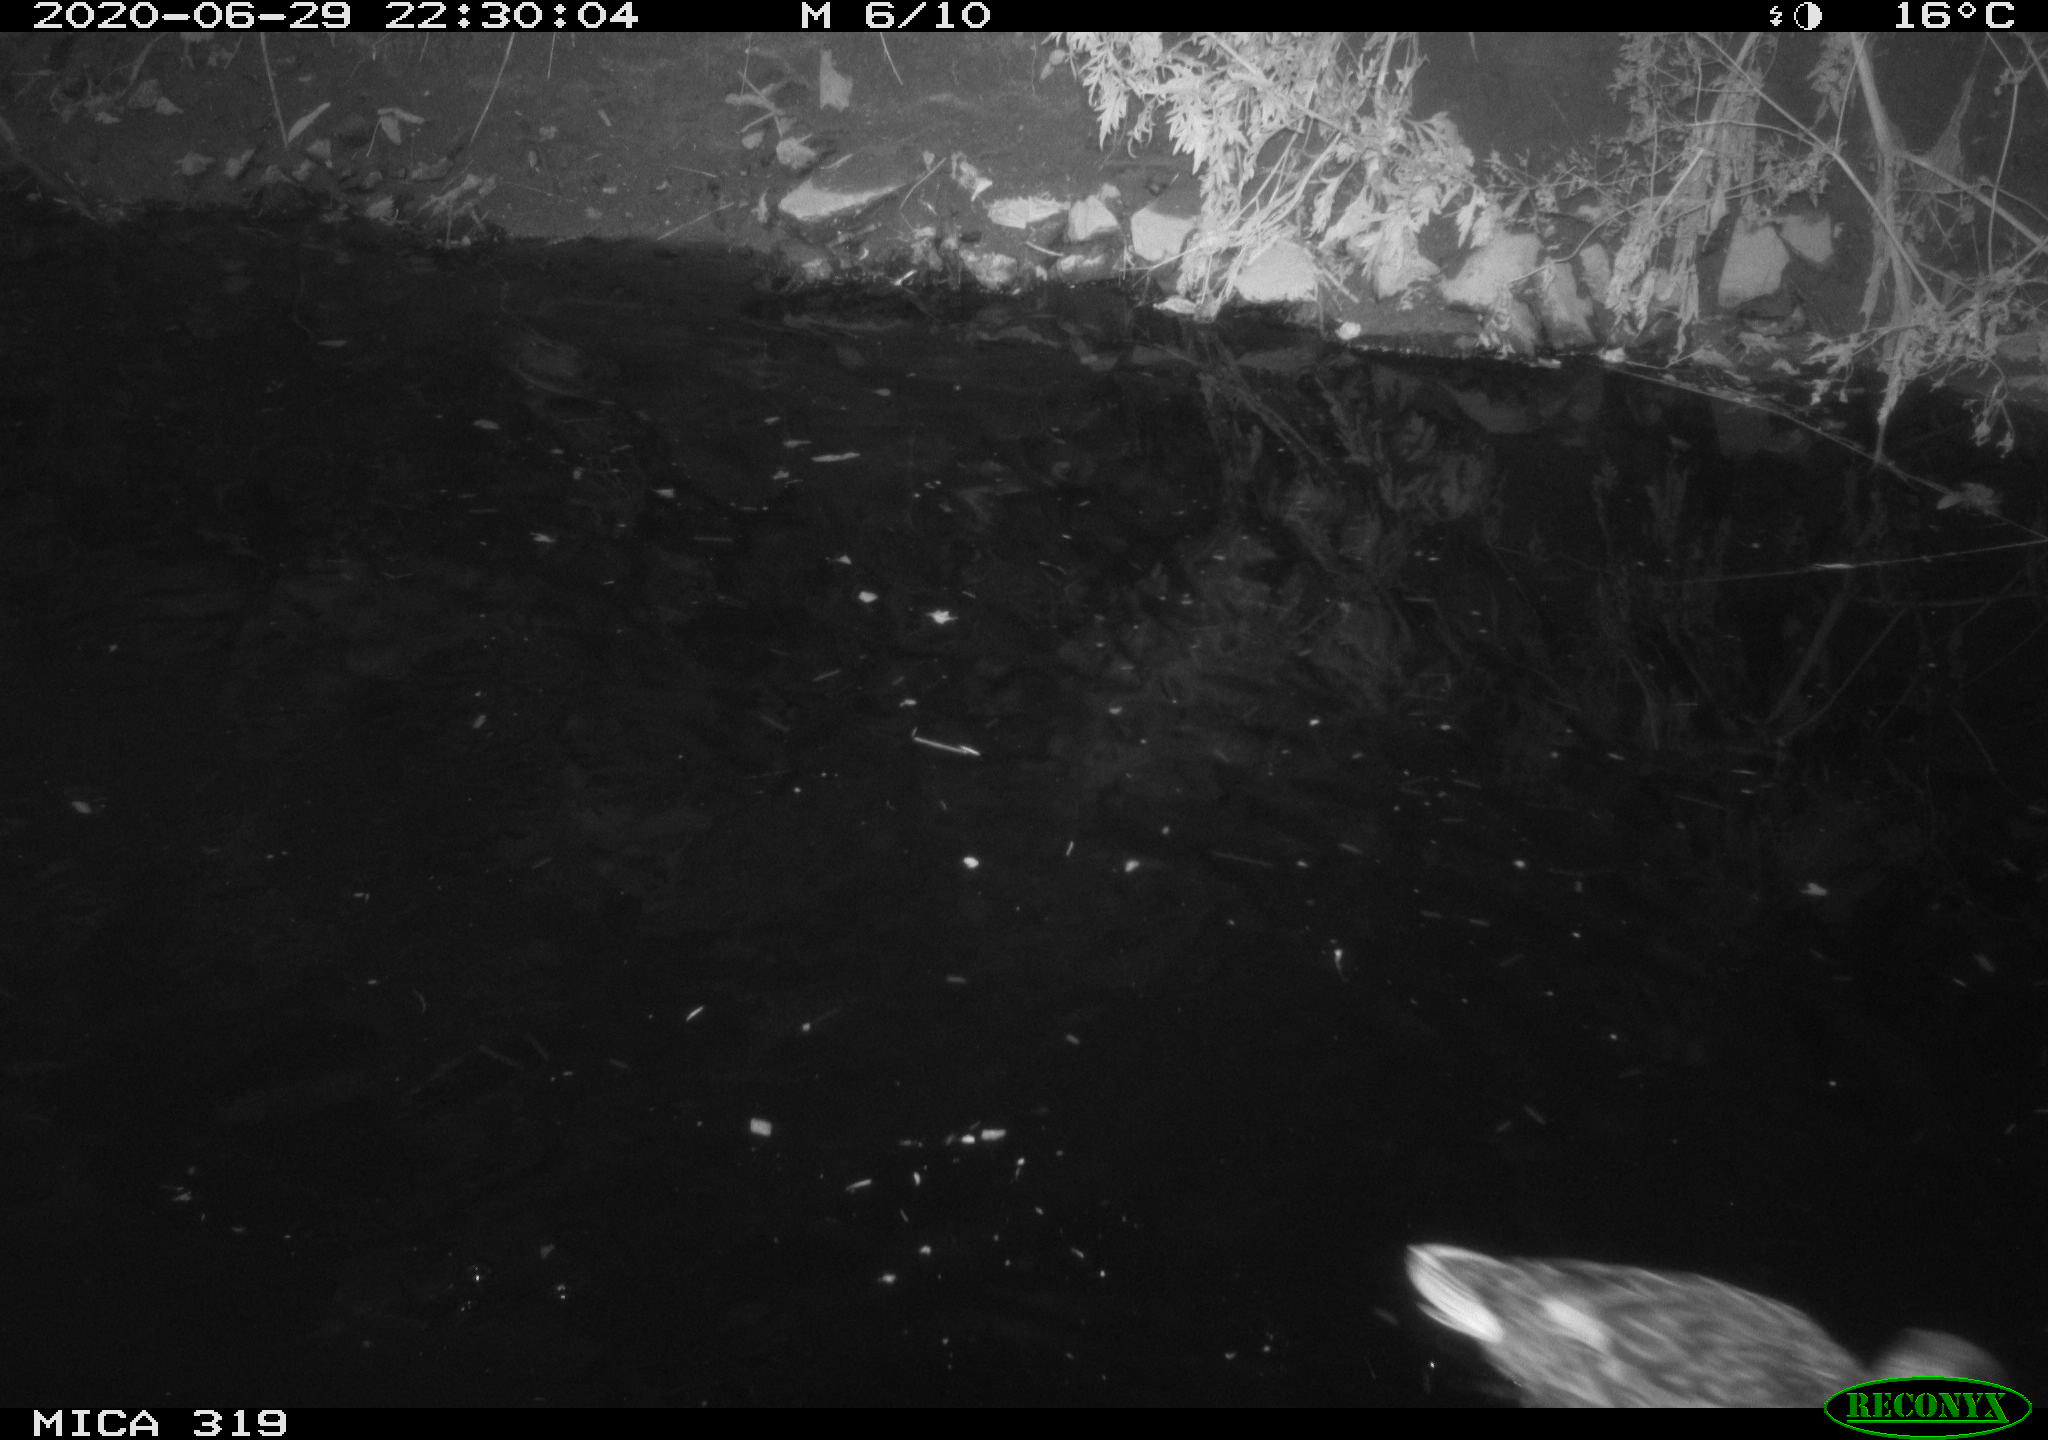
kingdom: Animalia
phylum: Chordata
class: Aves
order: Anseriformes
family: Anatidae
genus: Anas
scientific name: Anas platyrhynchos
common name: Mallard
